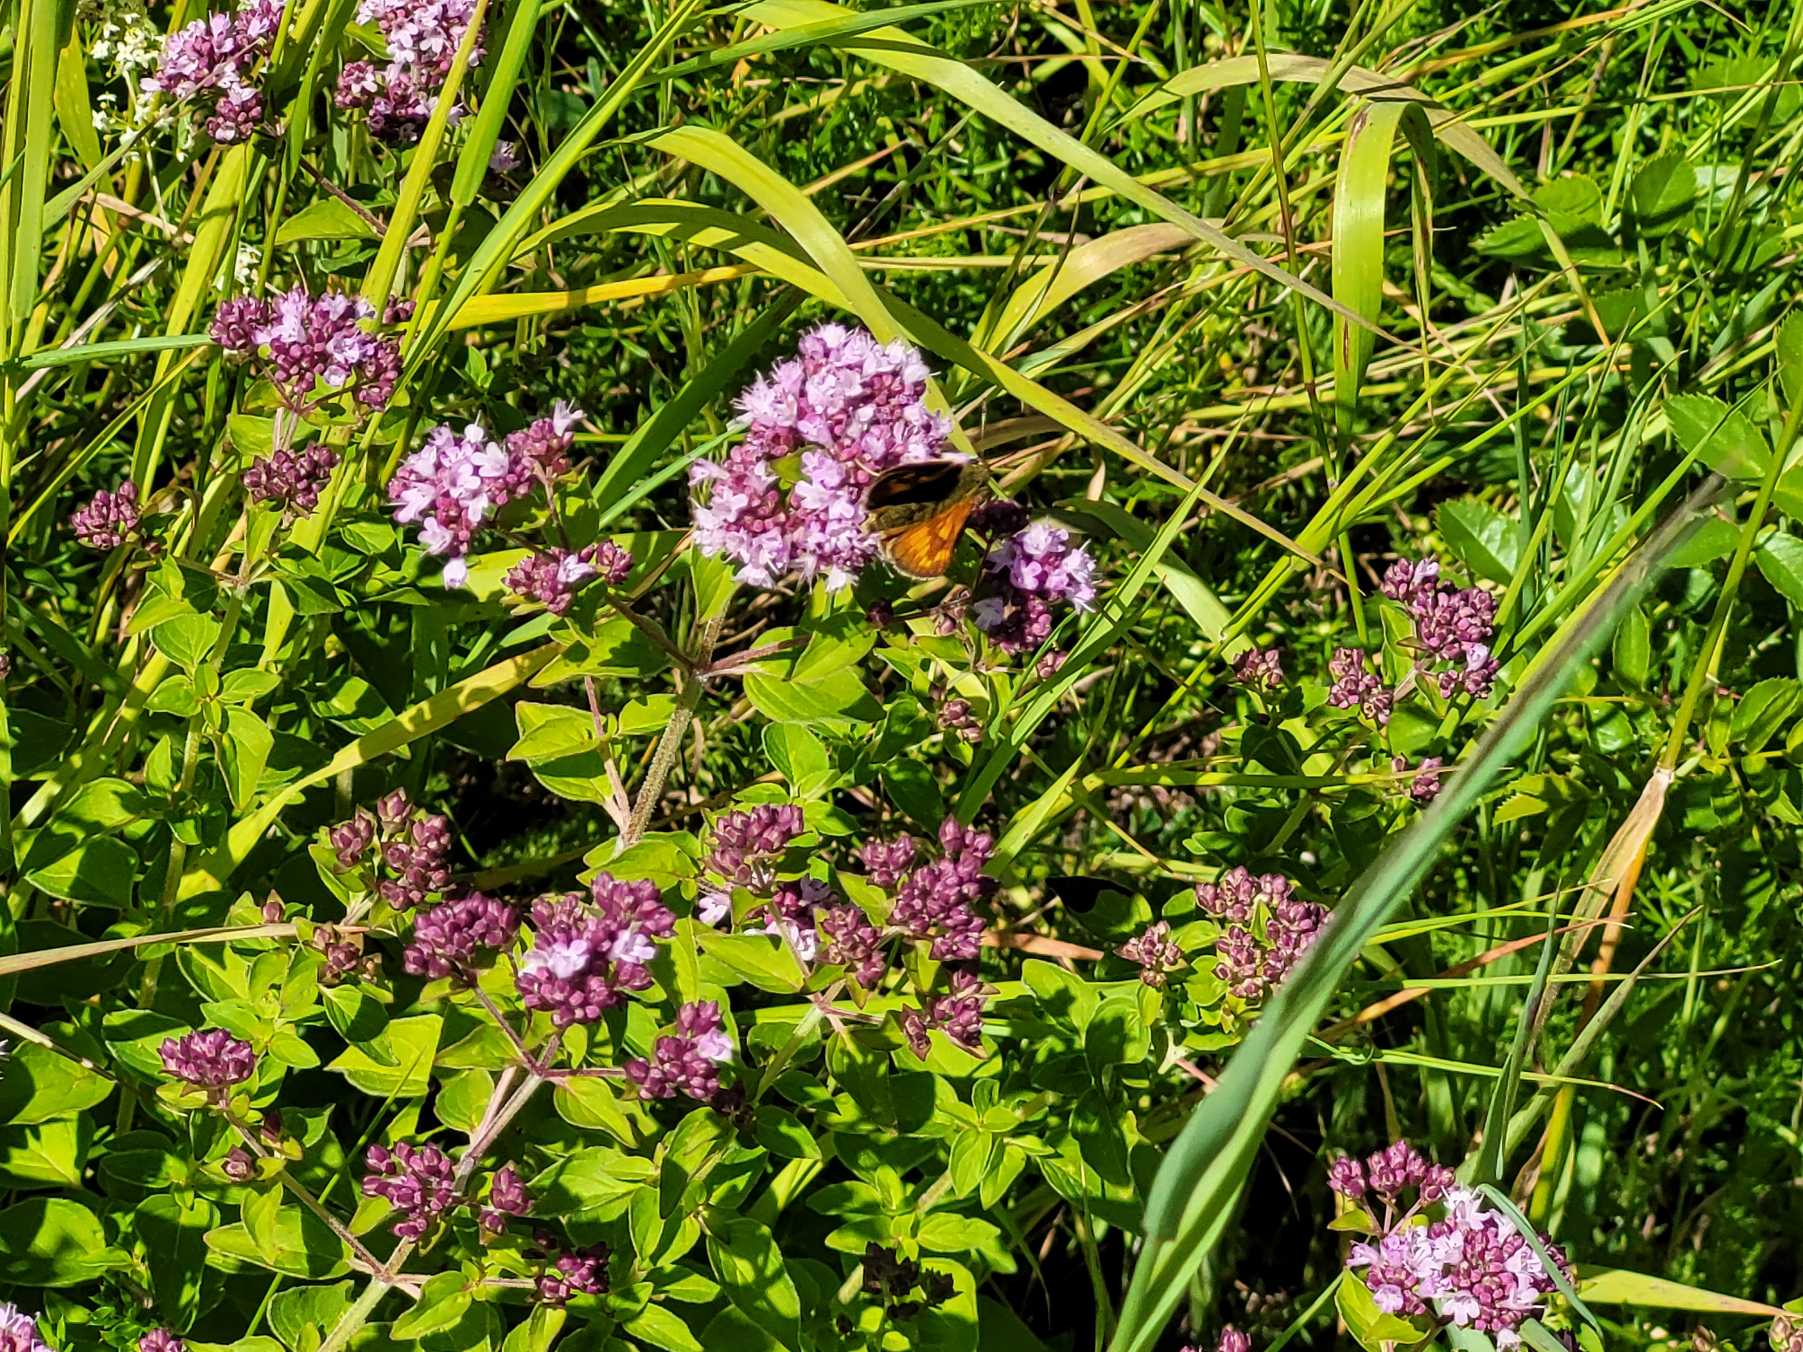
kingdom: Animalia
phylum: Arthropoda
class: Insecta
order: Lepidoptera
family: Hesperiidae
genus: Ochlodes
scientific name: Ochlodes venata
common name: Stor bredpande
